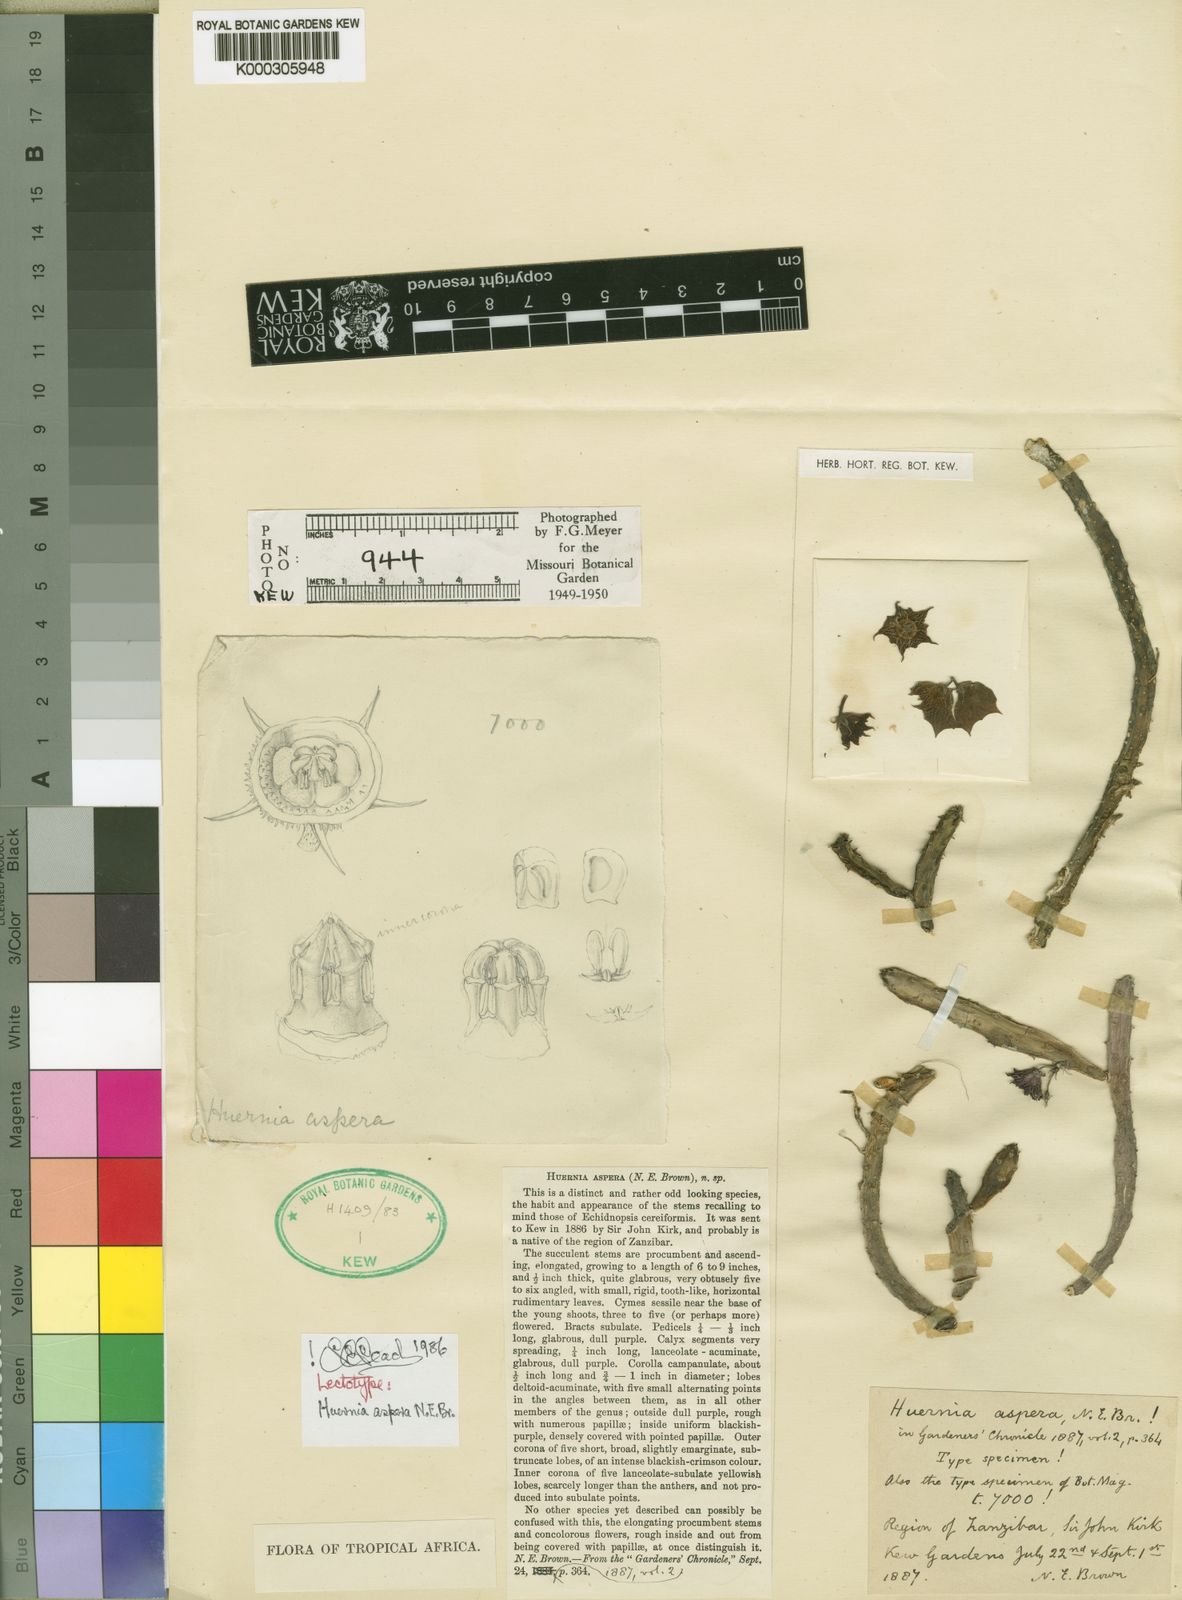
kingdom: Plantae
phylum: Tracheophyta
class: Magnoliopsida
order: Gentianales
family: Apocynaceae
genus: Ceropegia
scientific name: Ceropegia aspera
